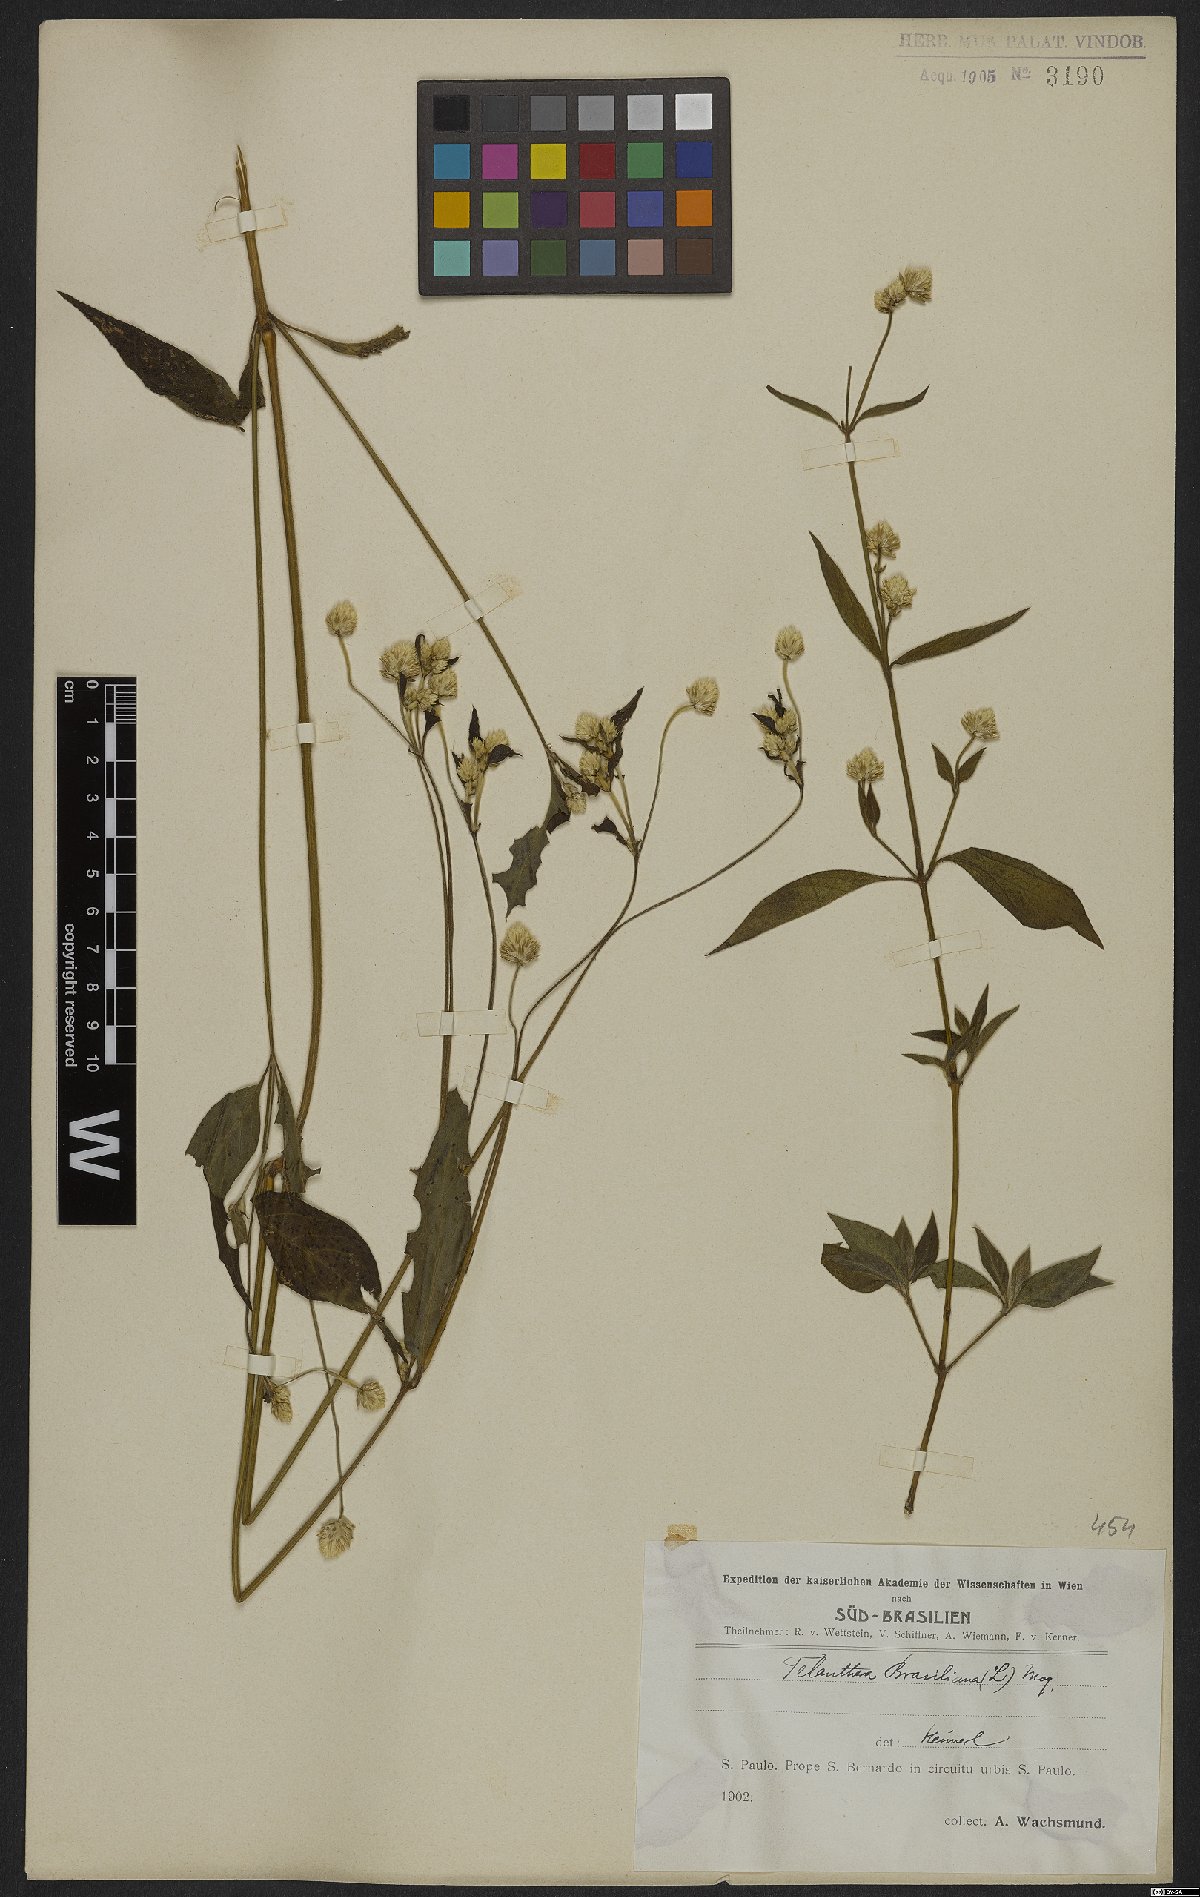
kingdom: Plantae
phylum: Tracheophyta
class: Magnoliopsida
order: Caryophyllales
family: Amaranthaceae
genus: Alternanthera
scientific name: Alternanthera brasiliana
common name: Brazilian joyweed
